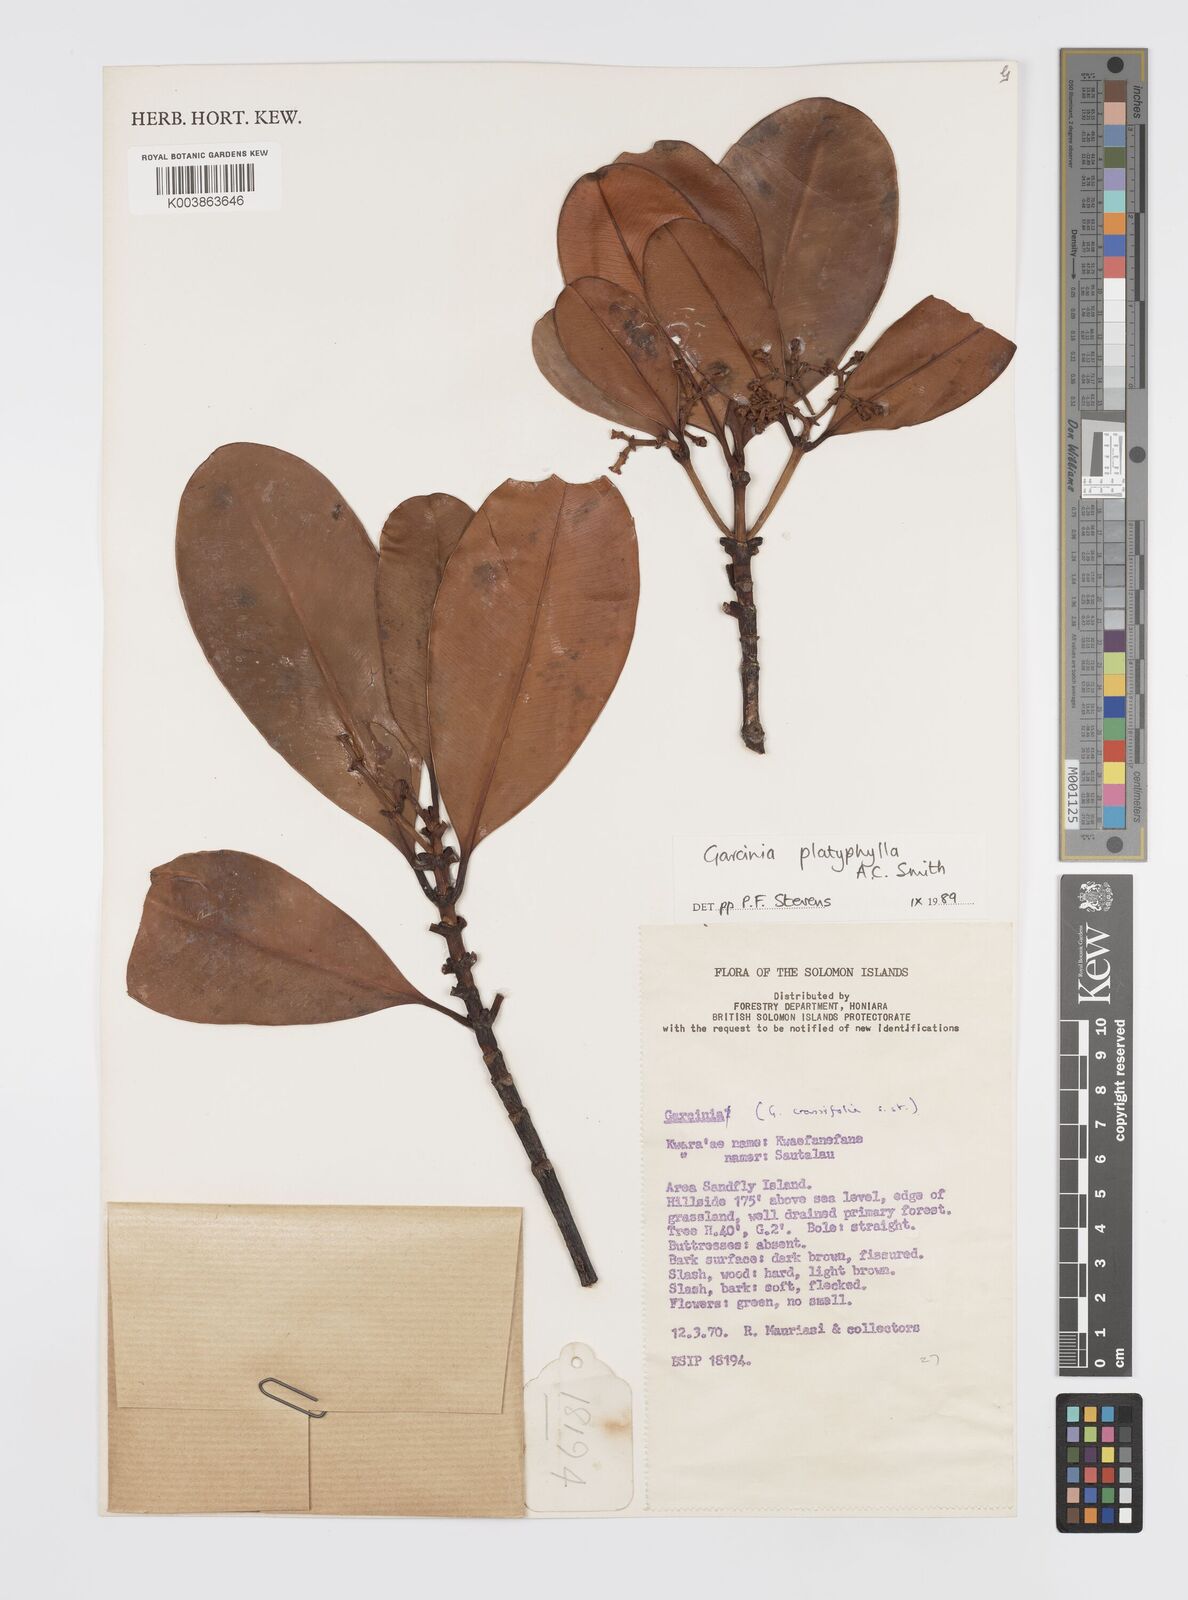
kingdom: Plantae
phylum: Tracheophyta
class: Magnoliopsida
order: Malpighiales
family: Clusiaceae
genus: Garcinia
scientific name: Garcinia platyphylla
